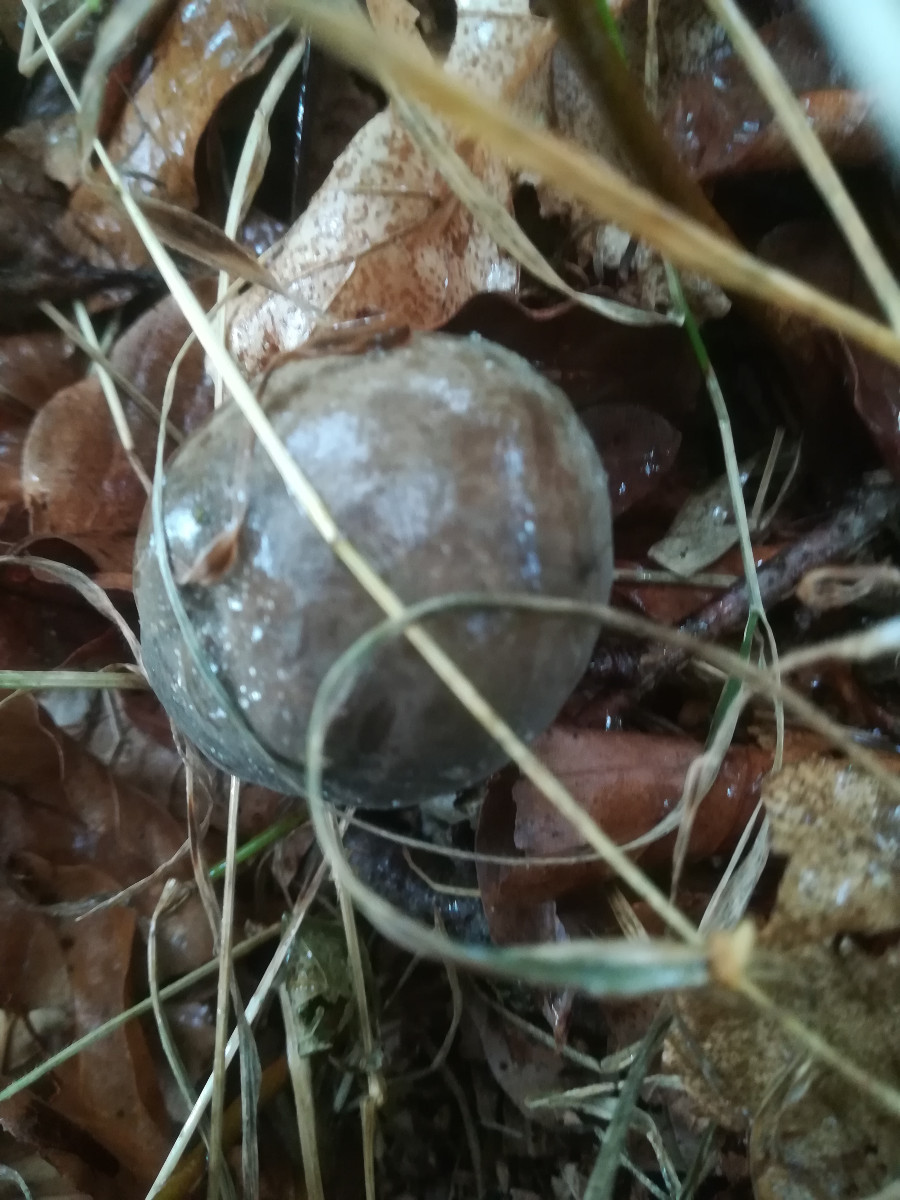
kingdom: Fungi
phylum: Basidiomycota
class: Agaricomycetes
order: Boletales
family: Boletaceae
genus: Xerocomellus
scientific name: Xerocomellus pruinatus
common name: dugget rørhat
